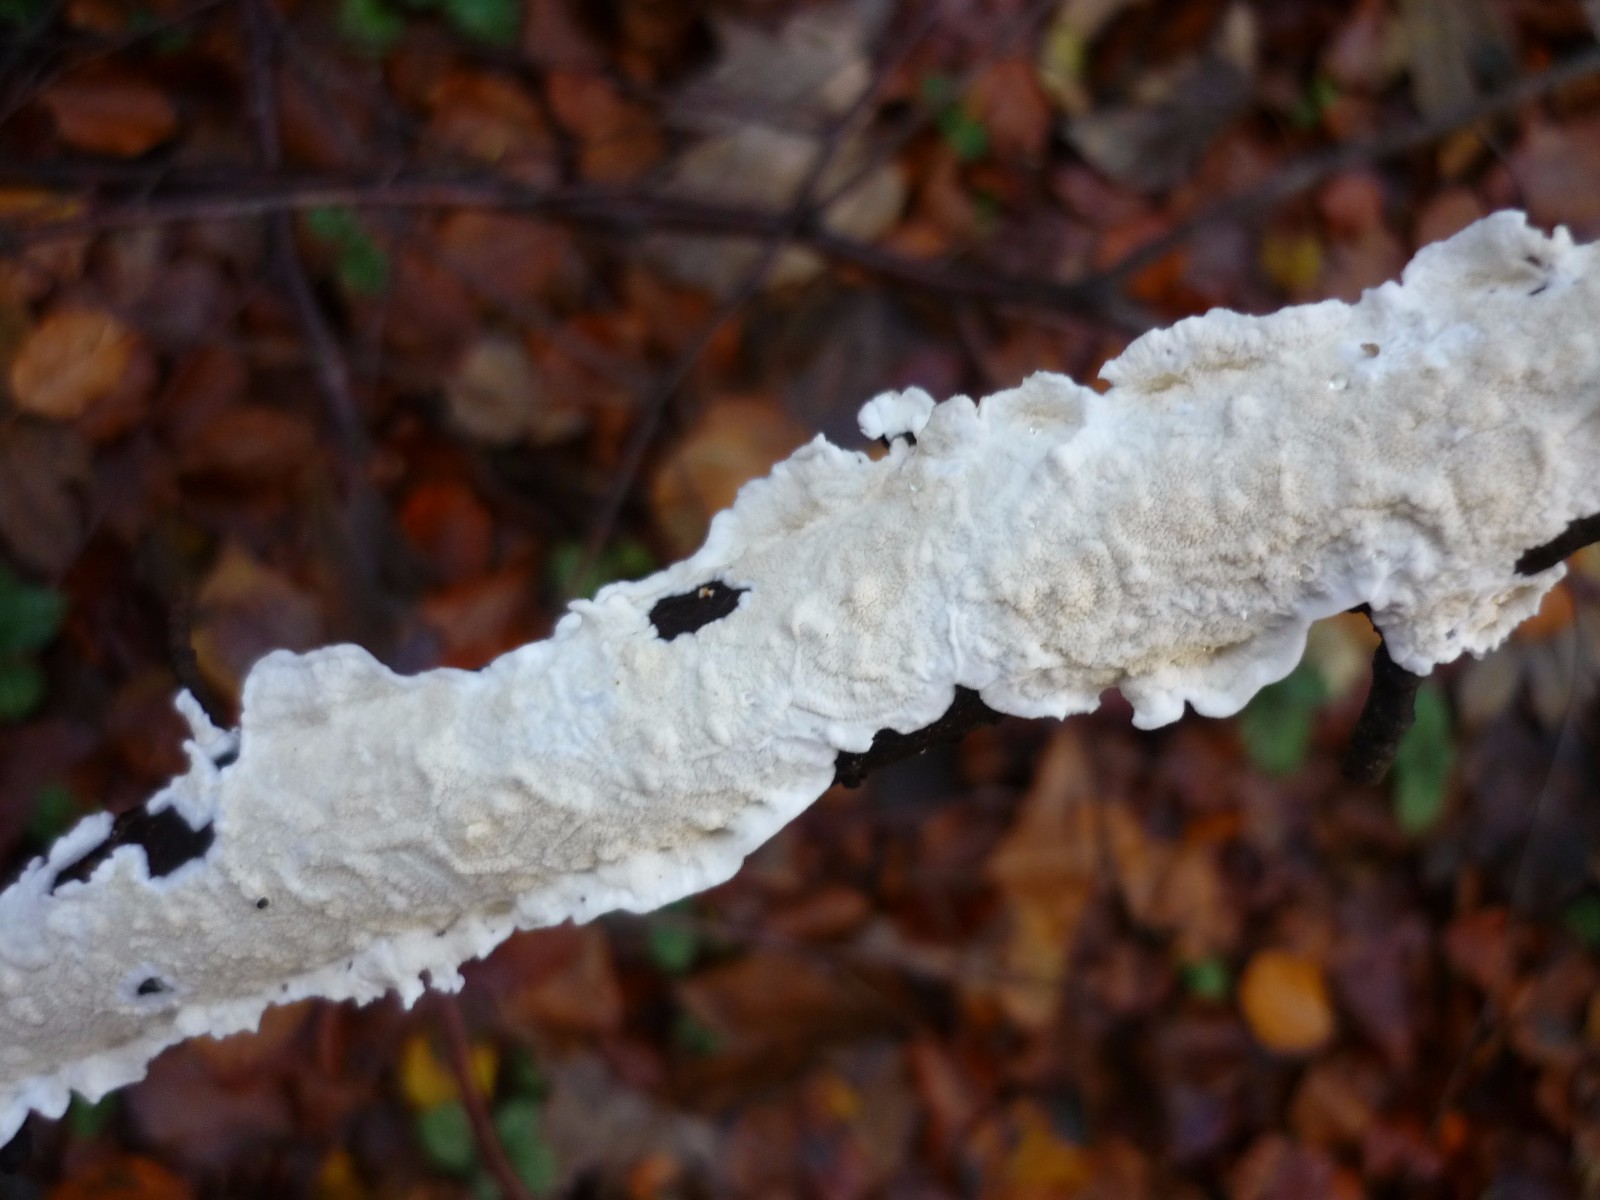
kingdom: Fungi
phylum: Basidiomycota
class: Agaricomycetes
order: Polyporales
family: Irpicaceae
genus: Byssomerulius
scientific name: Byssomerulius corium
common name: læder-åresvamp
